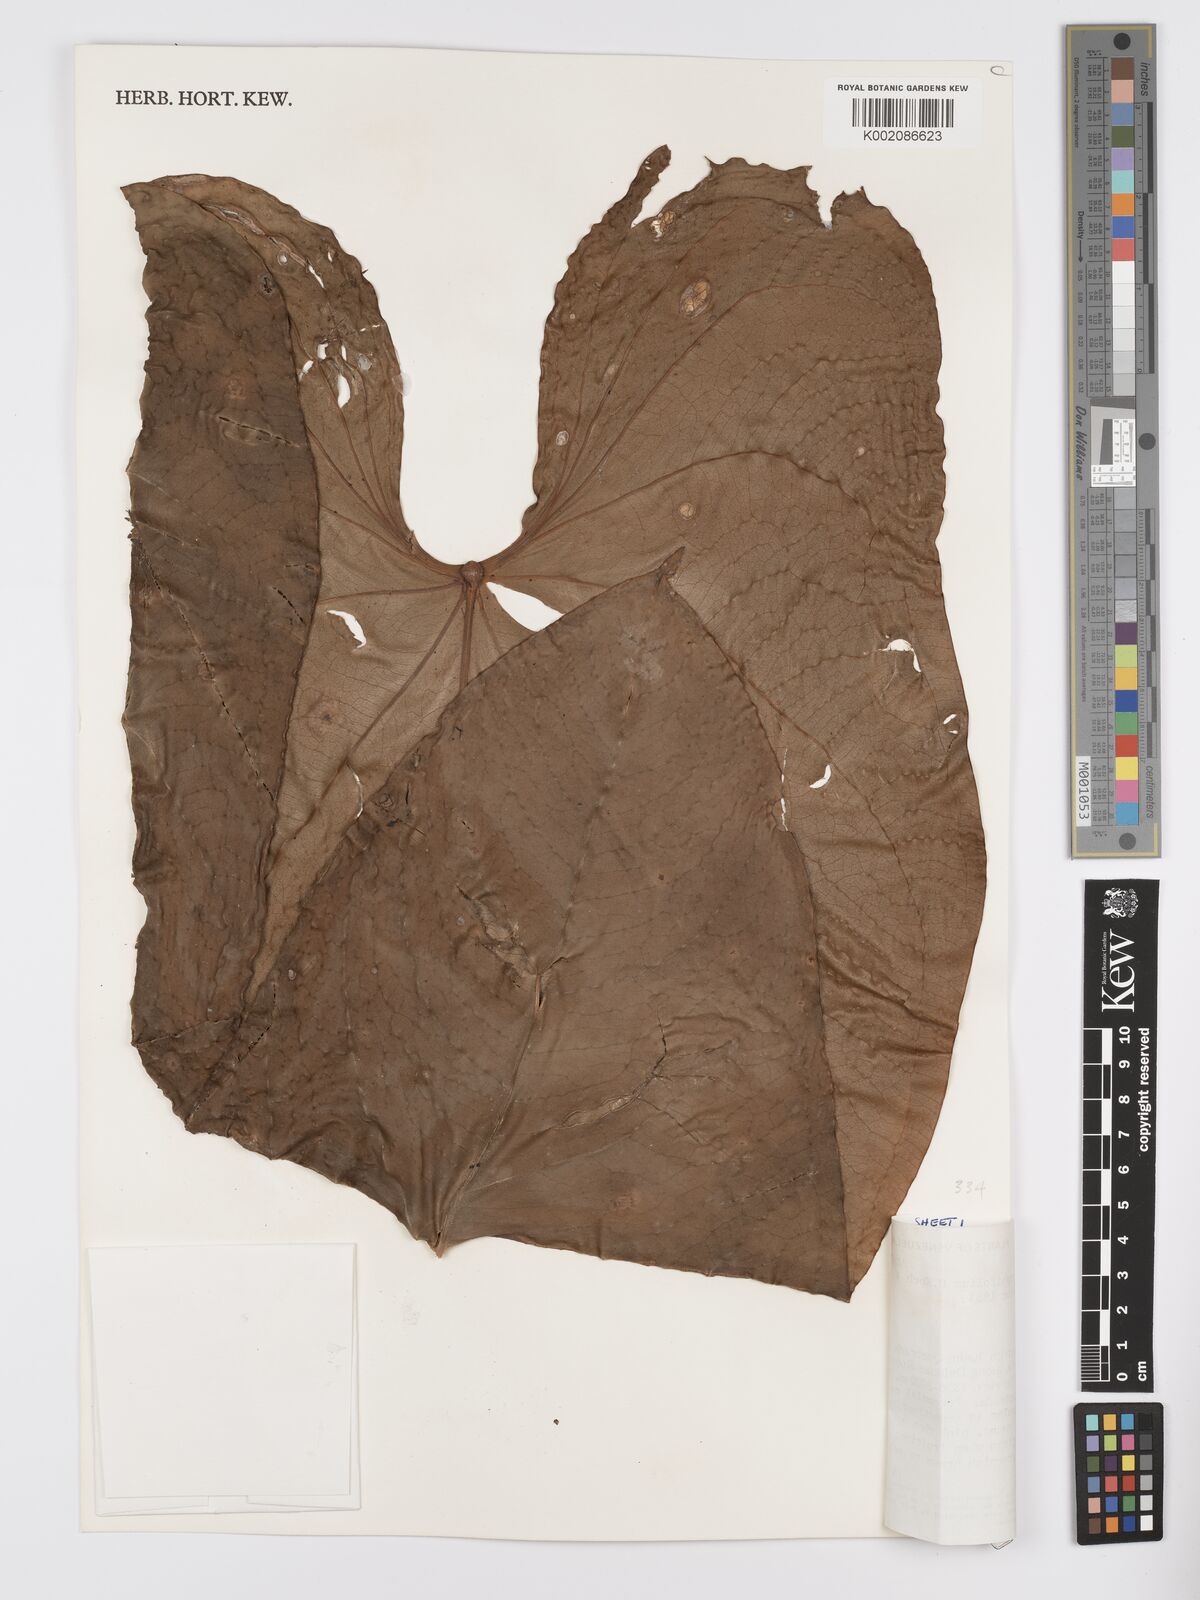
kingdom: Plantae
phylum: Tracheophyta
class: Liliopsida
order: Alismatales
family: Araceae
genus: Anthurium
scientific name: Anthurium nymphaeifolium
